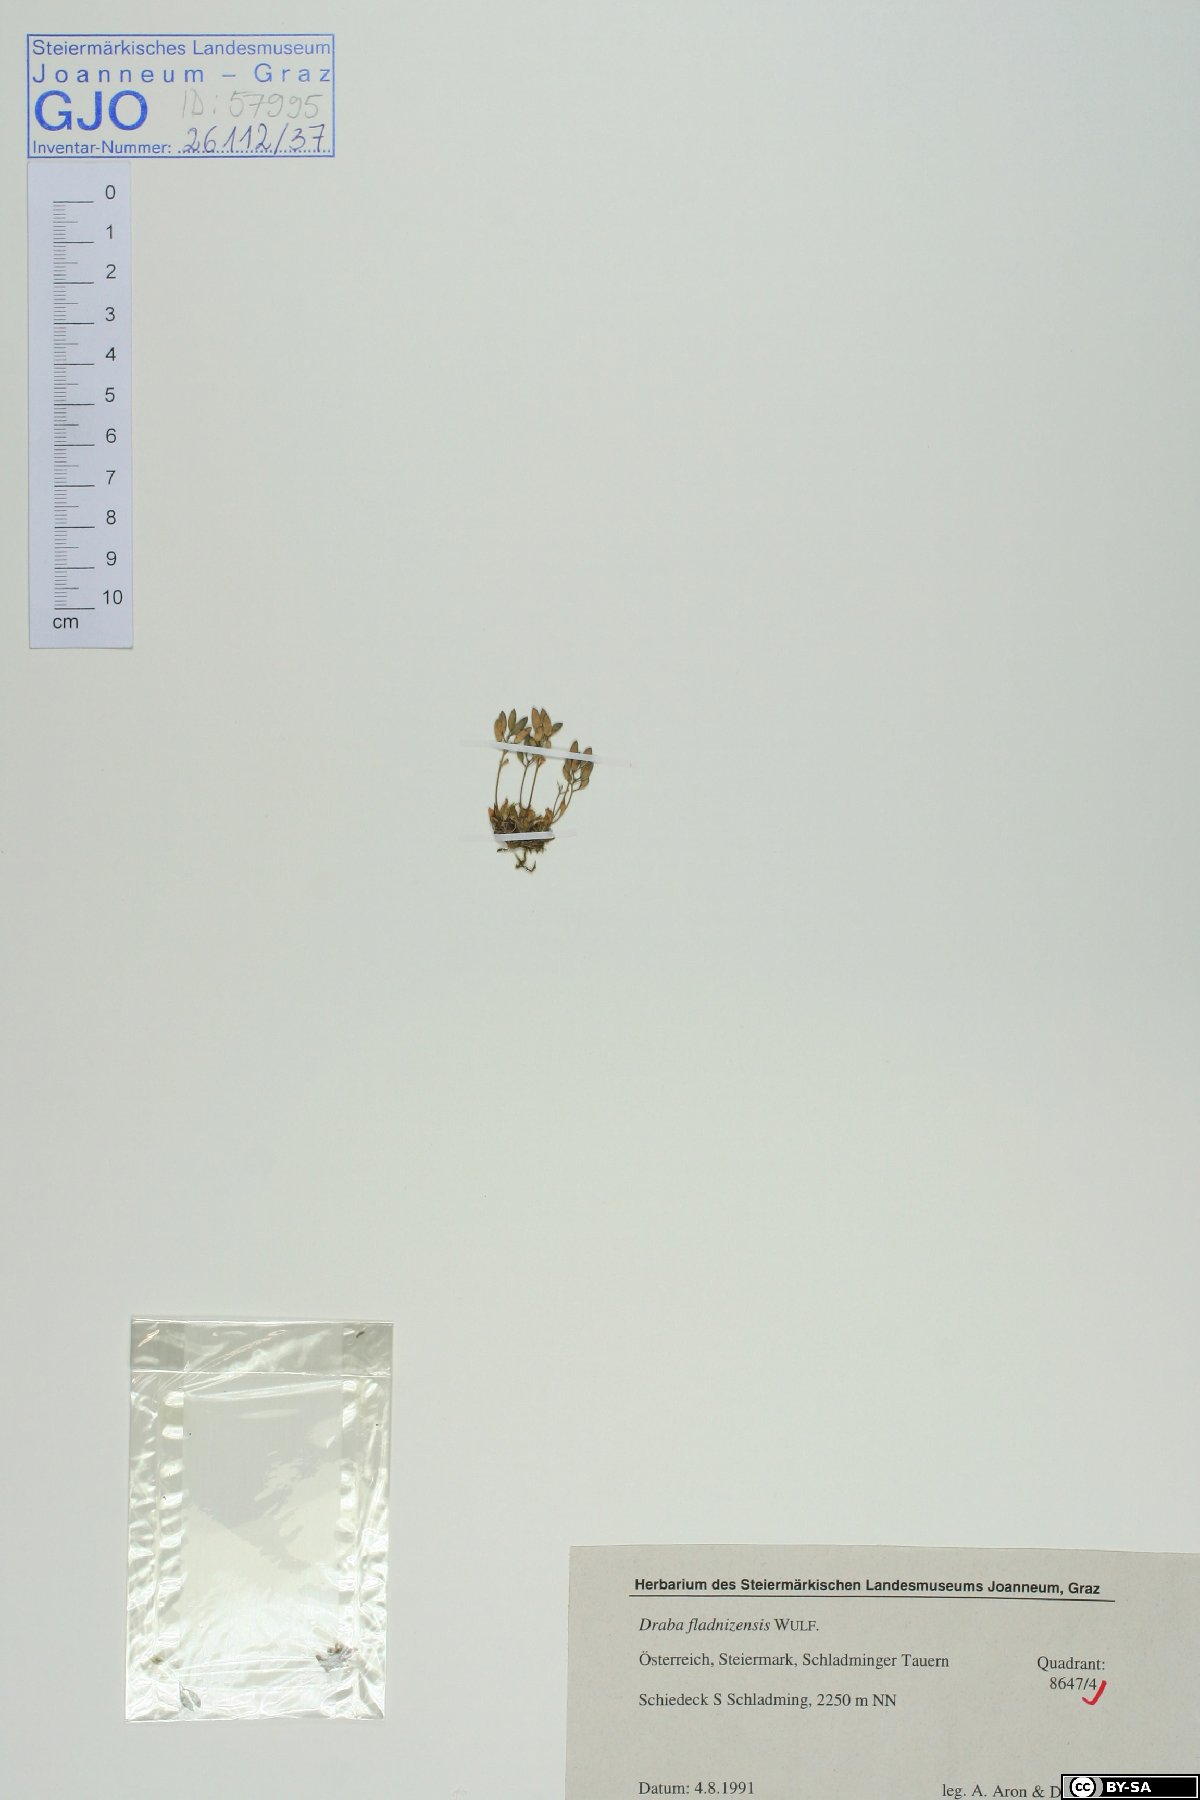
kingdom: Plantae
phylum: Tracheophyta
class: Magnoliopsida
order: Brassicales
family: Brassicaceae
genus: Draba
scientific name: Draba fladnizensis
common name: Austrian draba
